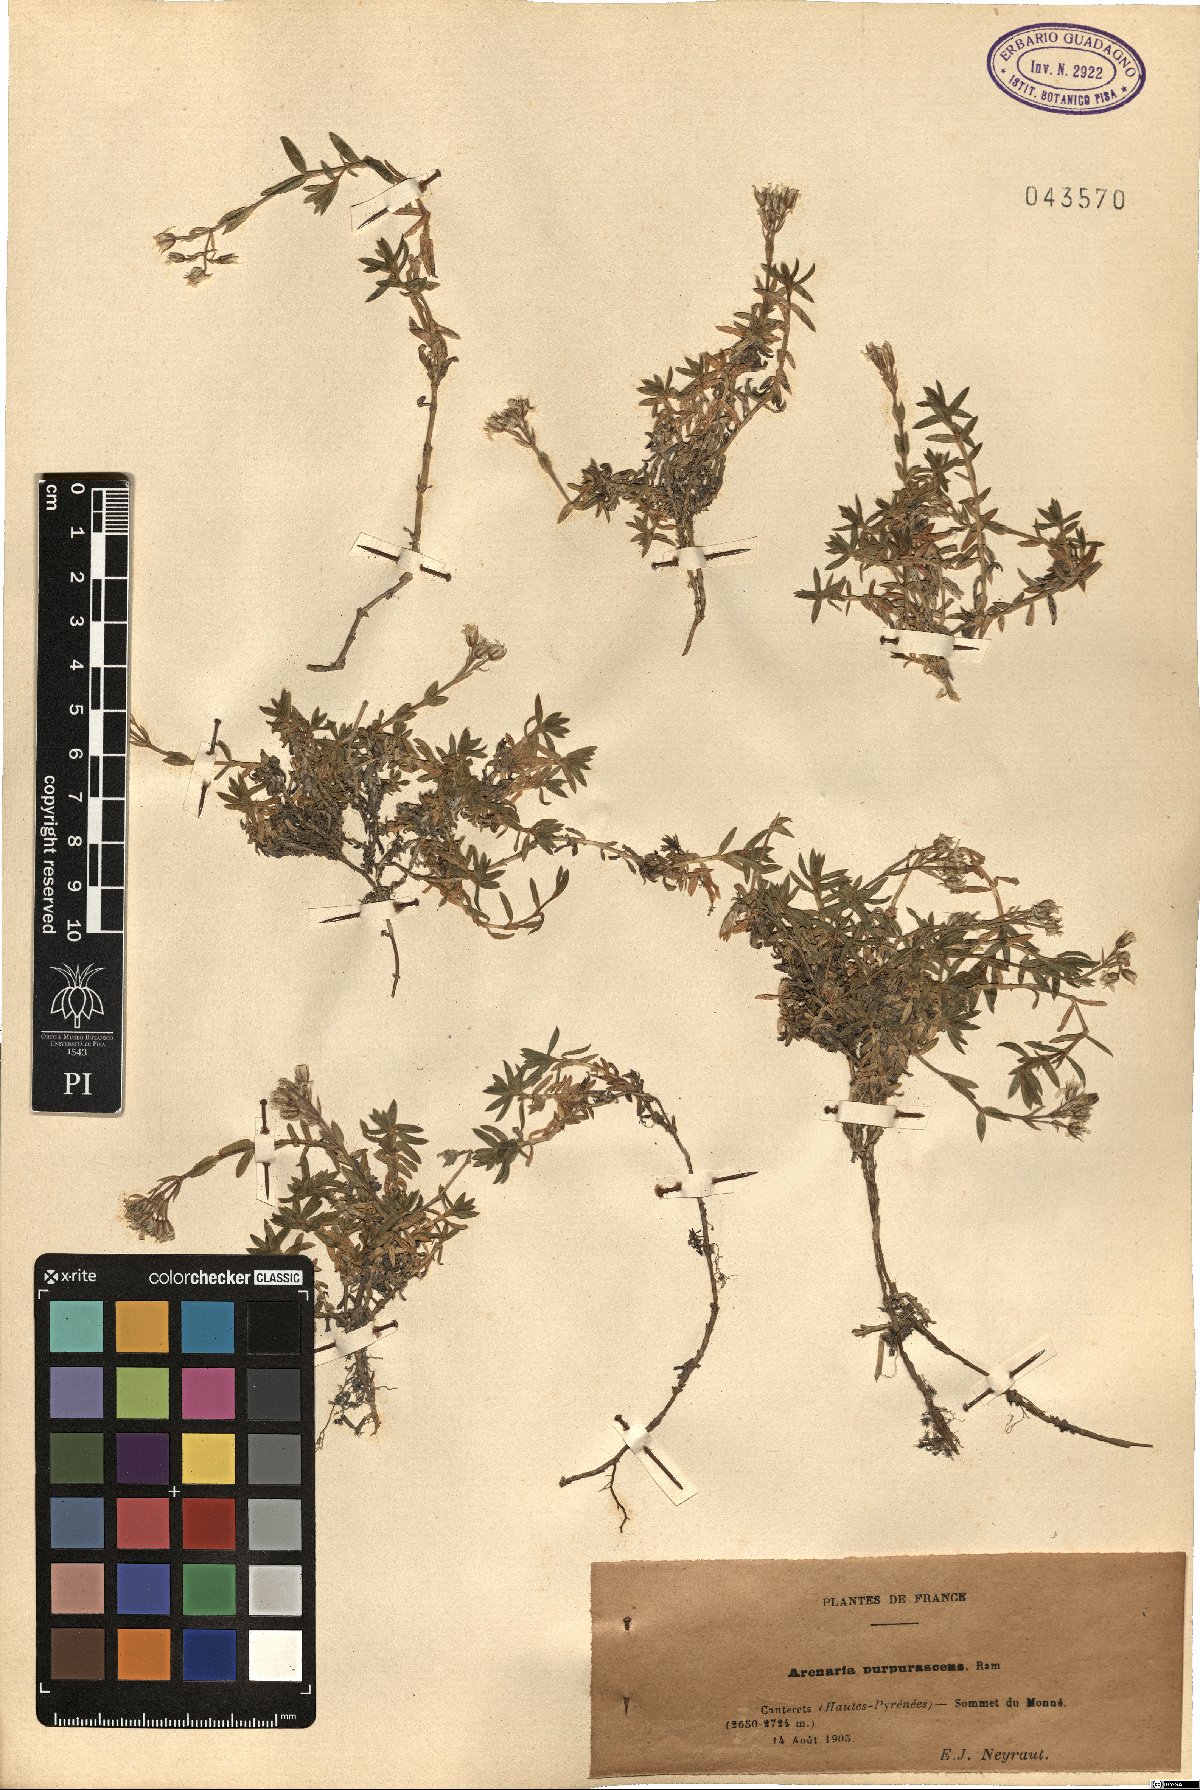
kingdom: Plantae
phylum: Tracheophyta
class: Magnoliopsida
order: Caryophyllales
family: Caryophyllaceae
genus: Arenaria
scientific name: Arenaria purpurascens
